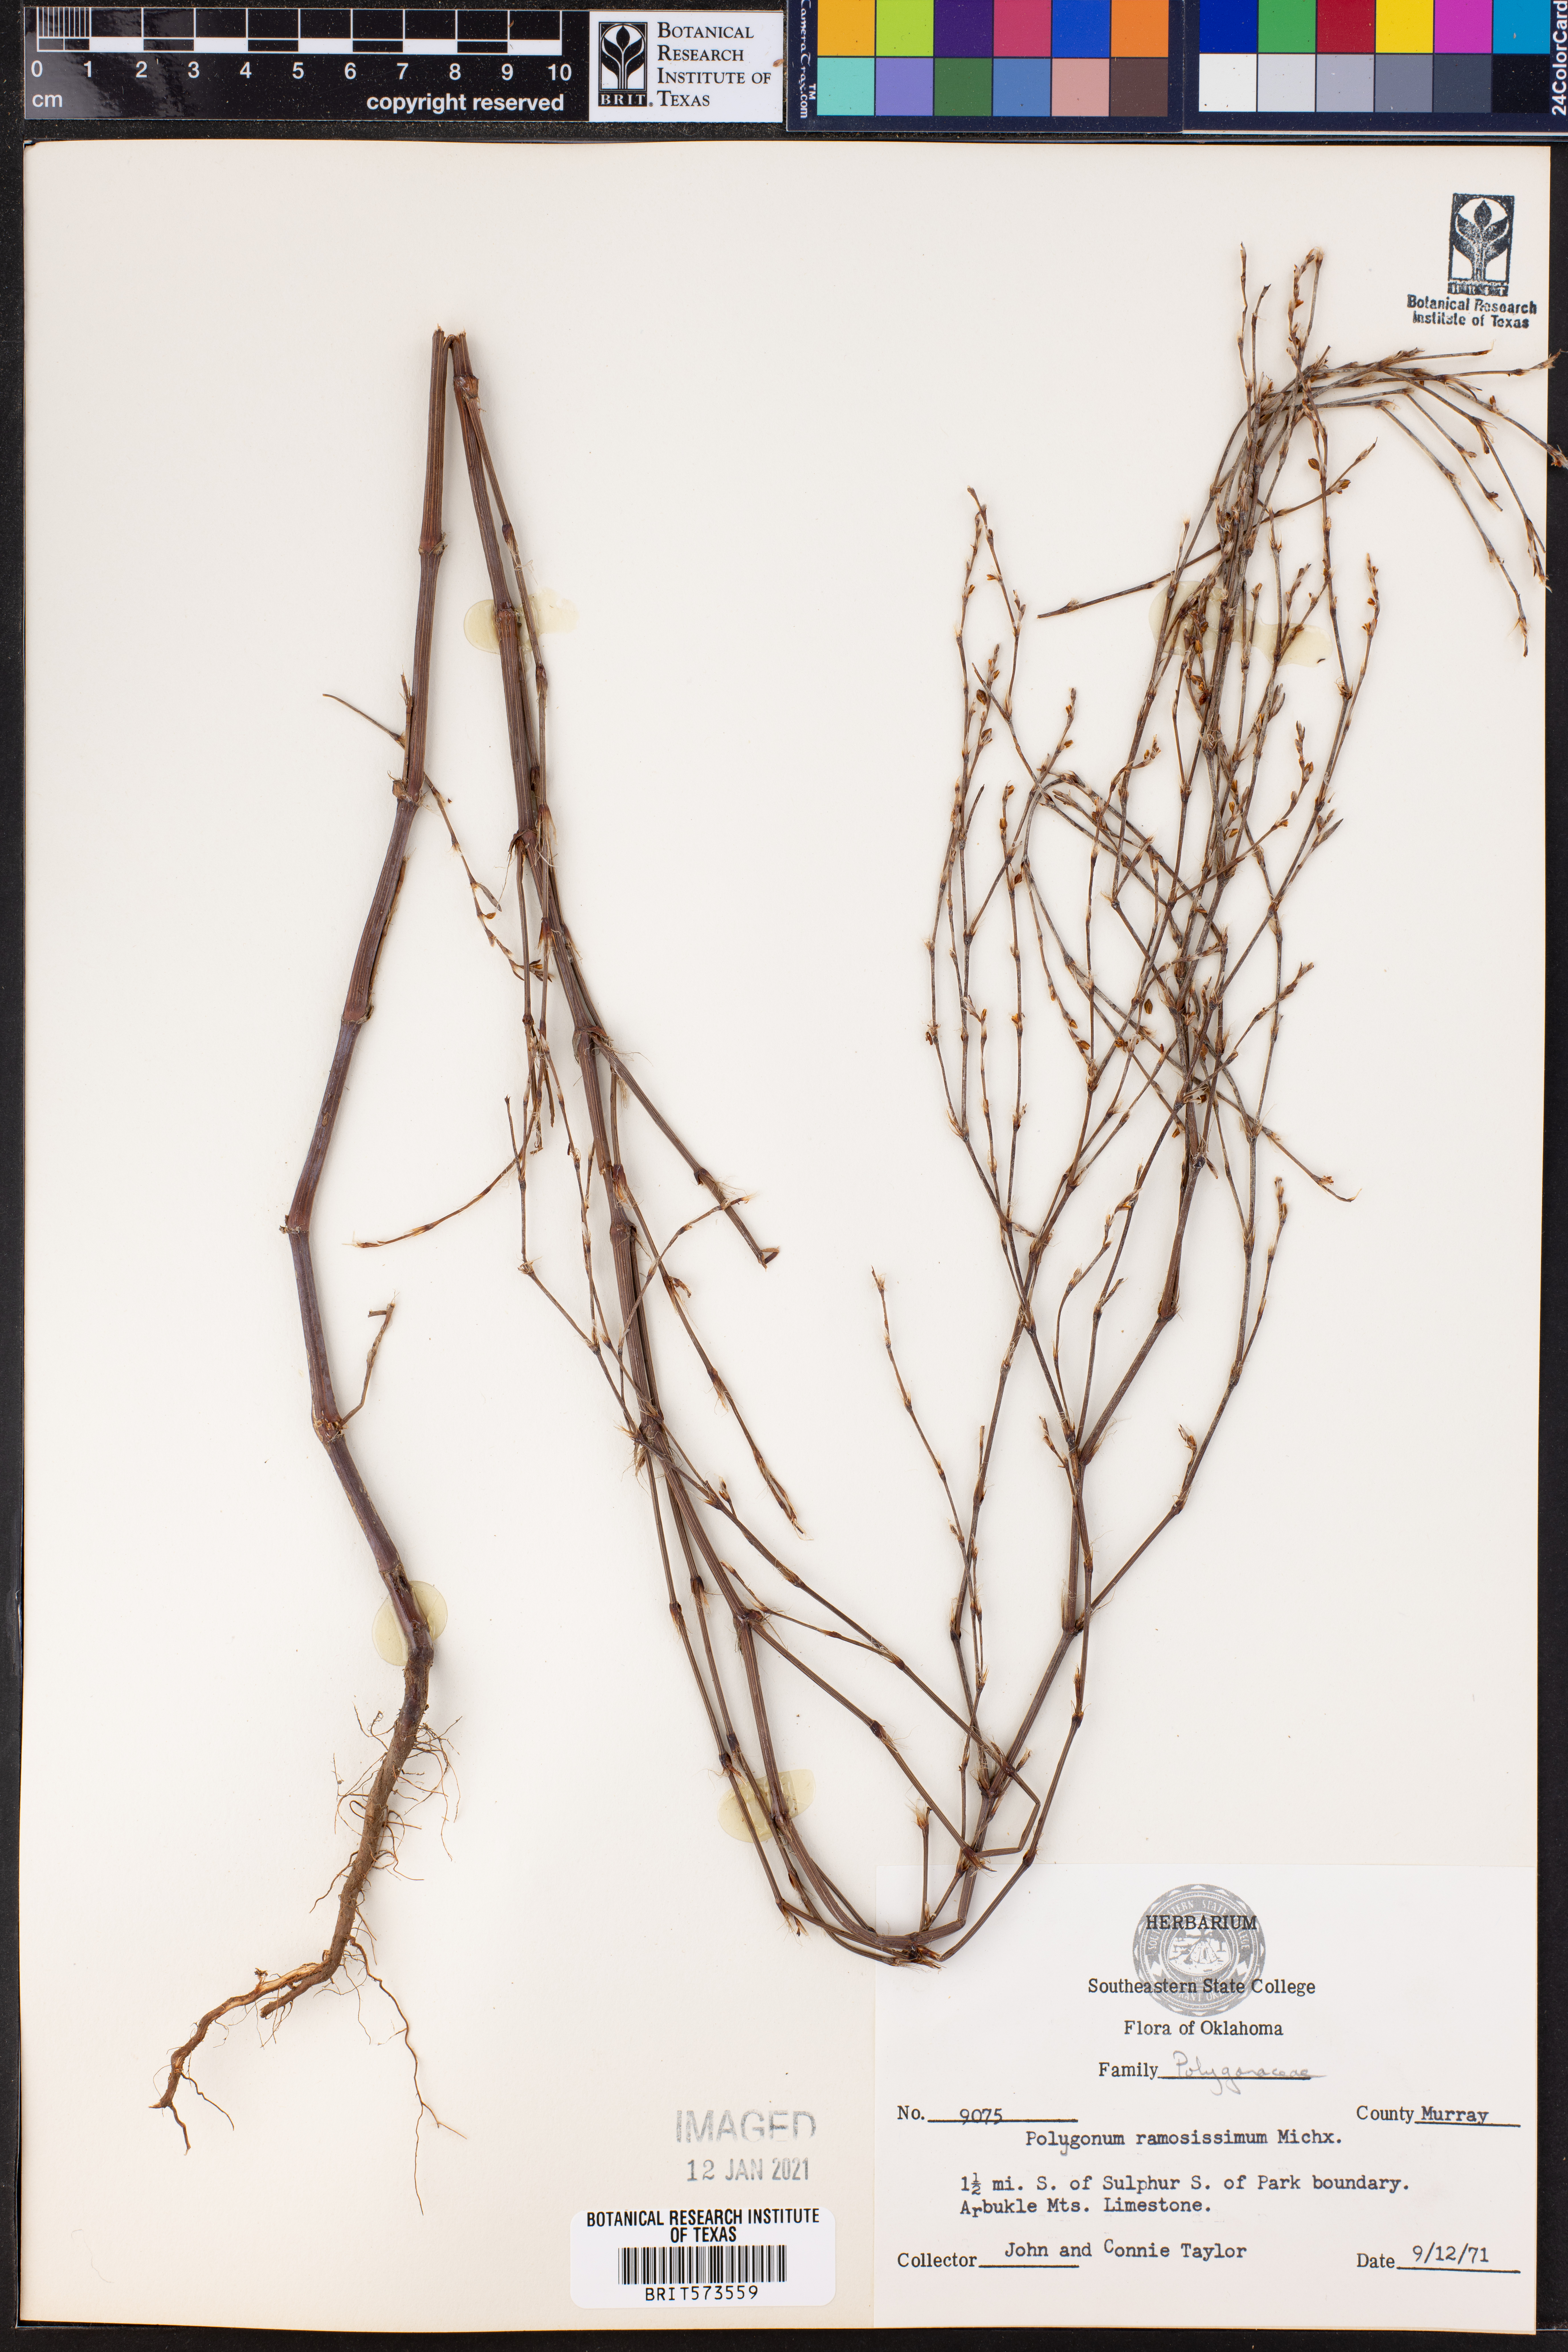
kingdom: Plantae
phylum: Tracheophyta
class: Magnoliopsida
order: Caryophyllales
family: Polygonaceae
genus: Polygonum
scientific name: Polygonum ramosissimum
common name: Bushy knotweed
